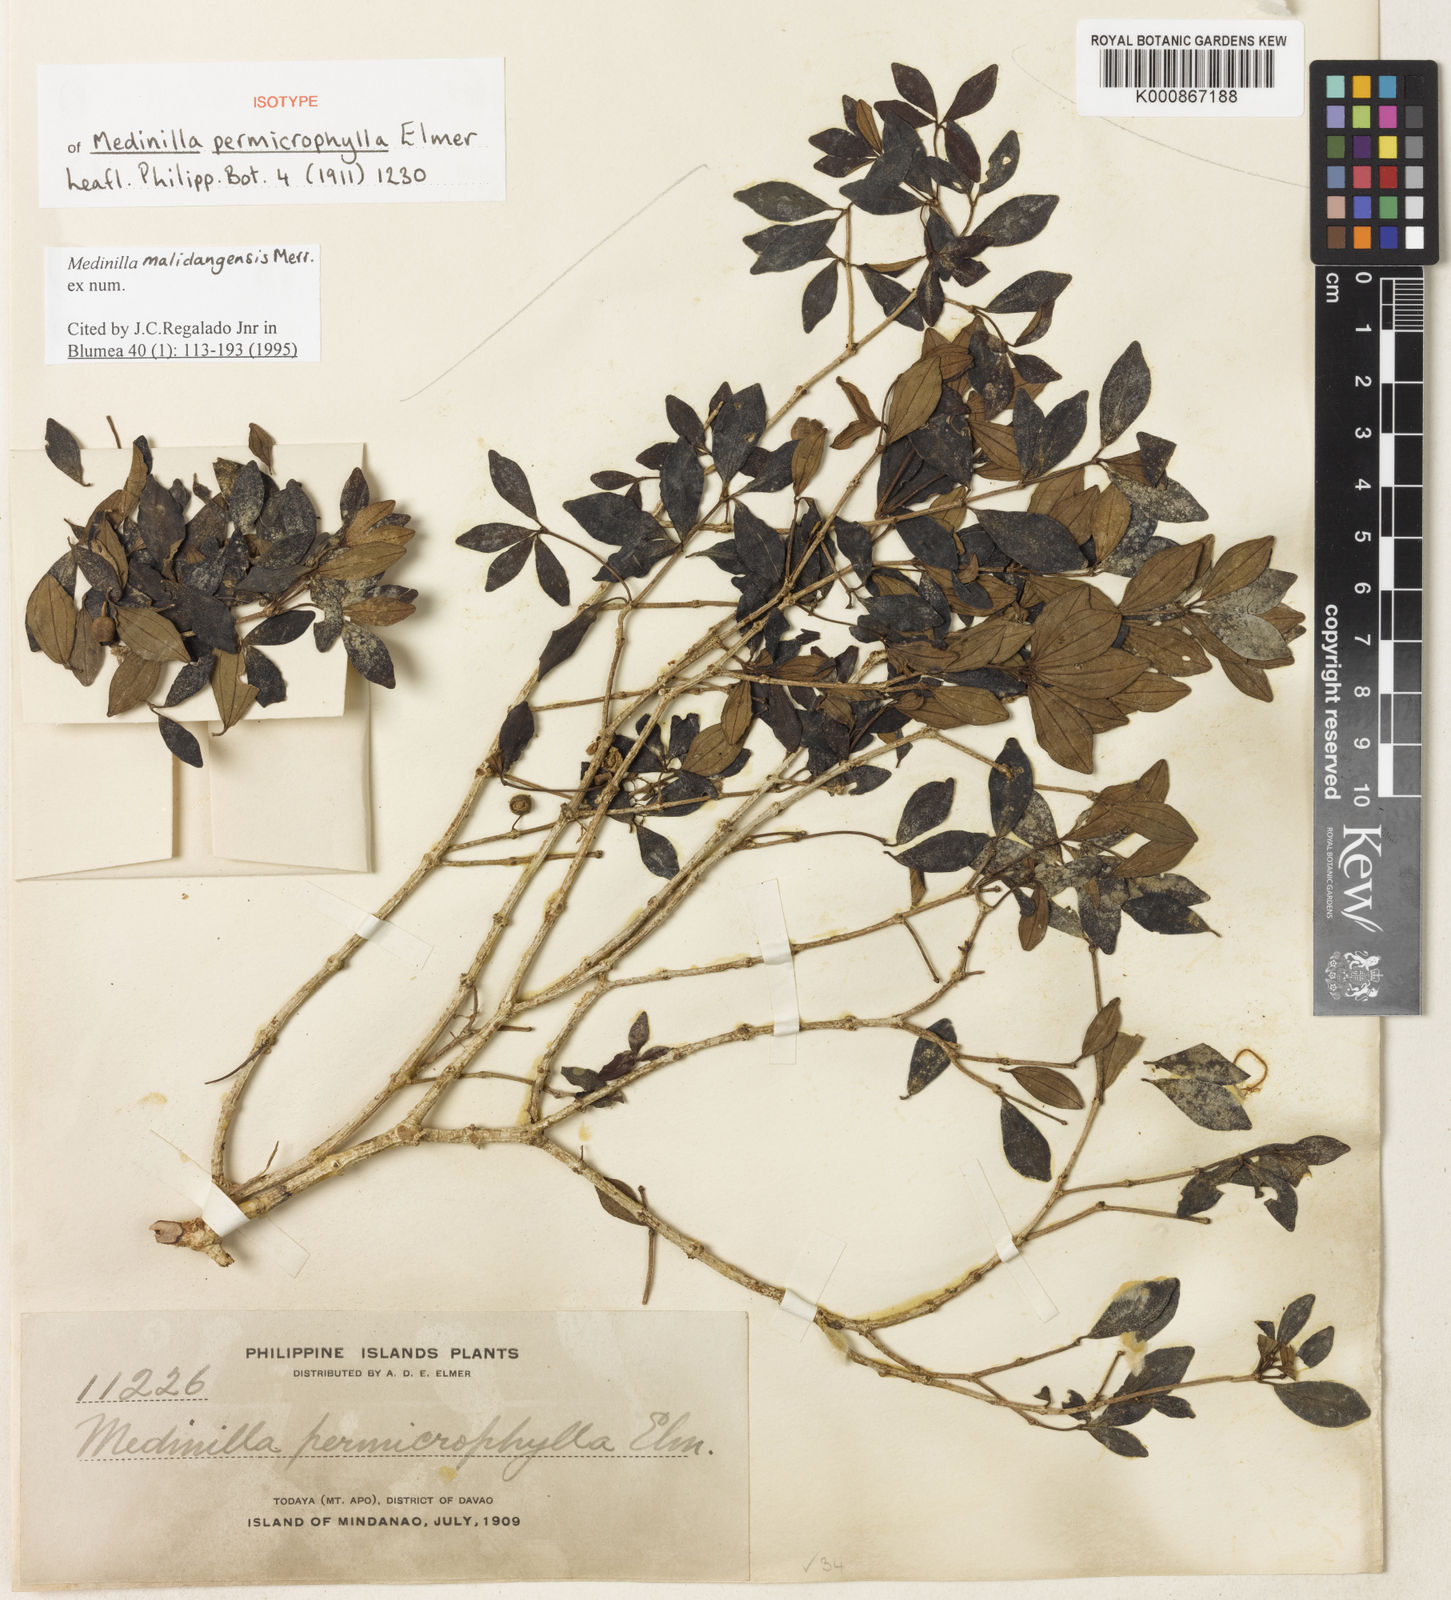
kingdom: Plantae
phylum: Tracheophyta
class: Magnoliopsida
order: Myrtales
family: Melastomataceae
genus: Medinilla
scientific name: Medinilla malindangensis
